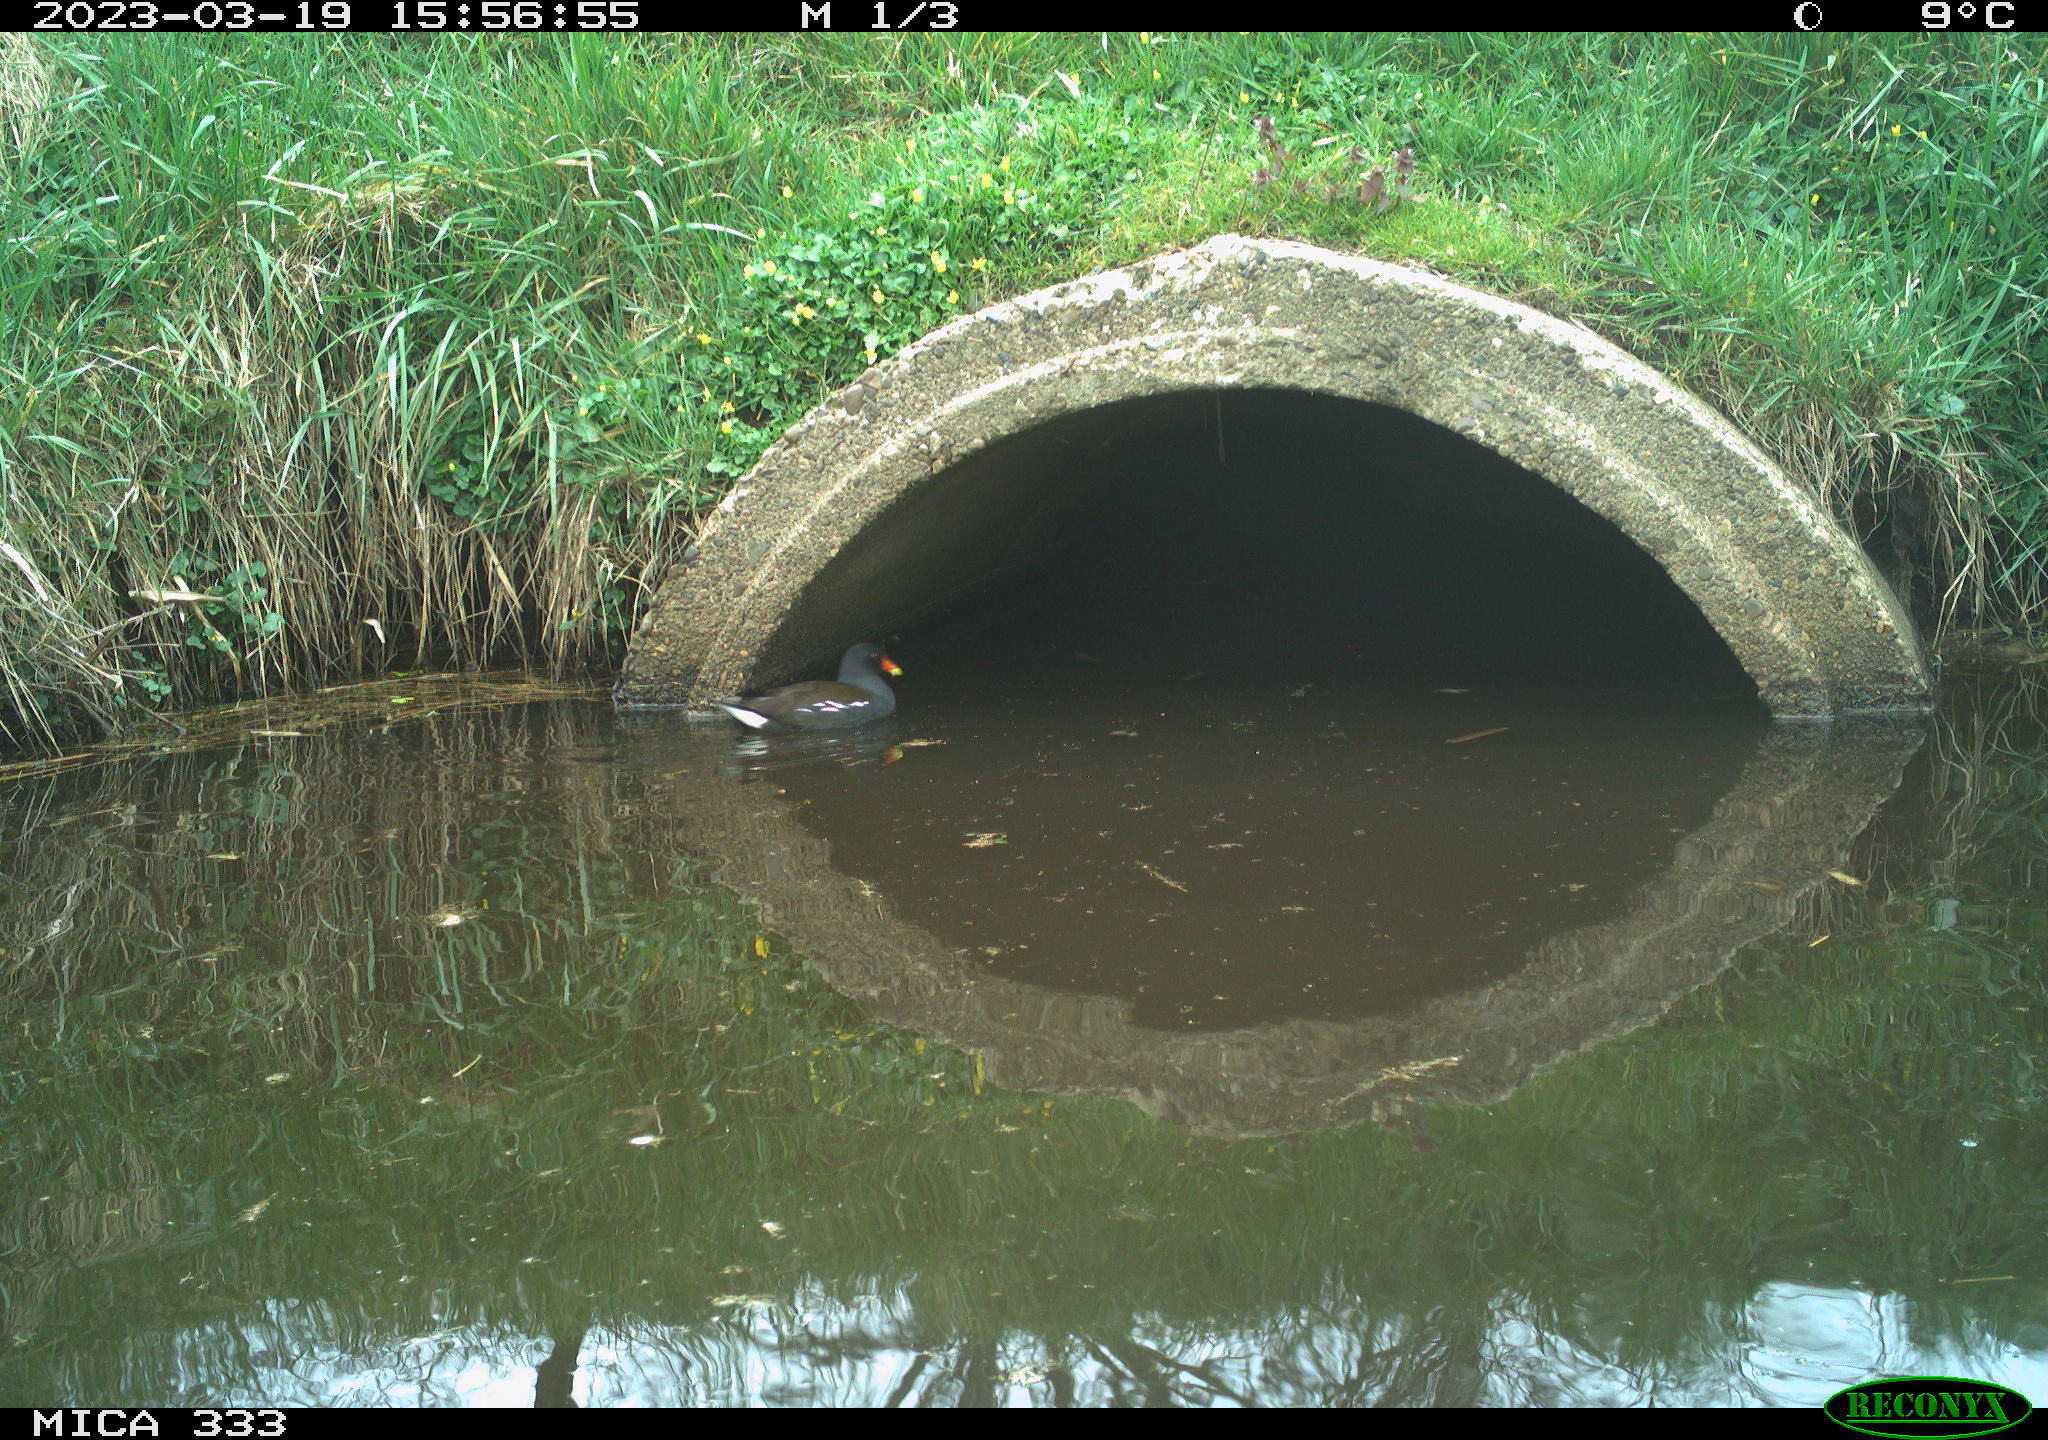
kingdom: Animalia
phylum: Chordata
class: Aves
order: Gruiformes
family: Rallidae
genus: Gallinula
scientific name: Gallinula chloropus
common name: Common moorhen
